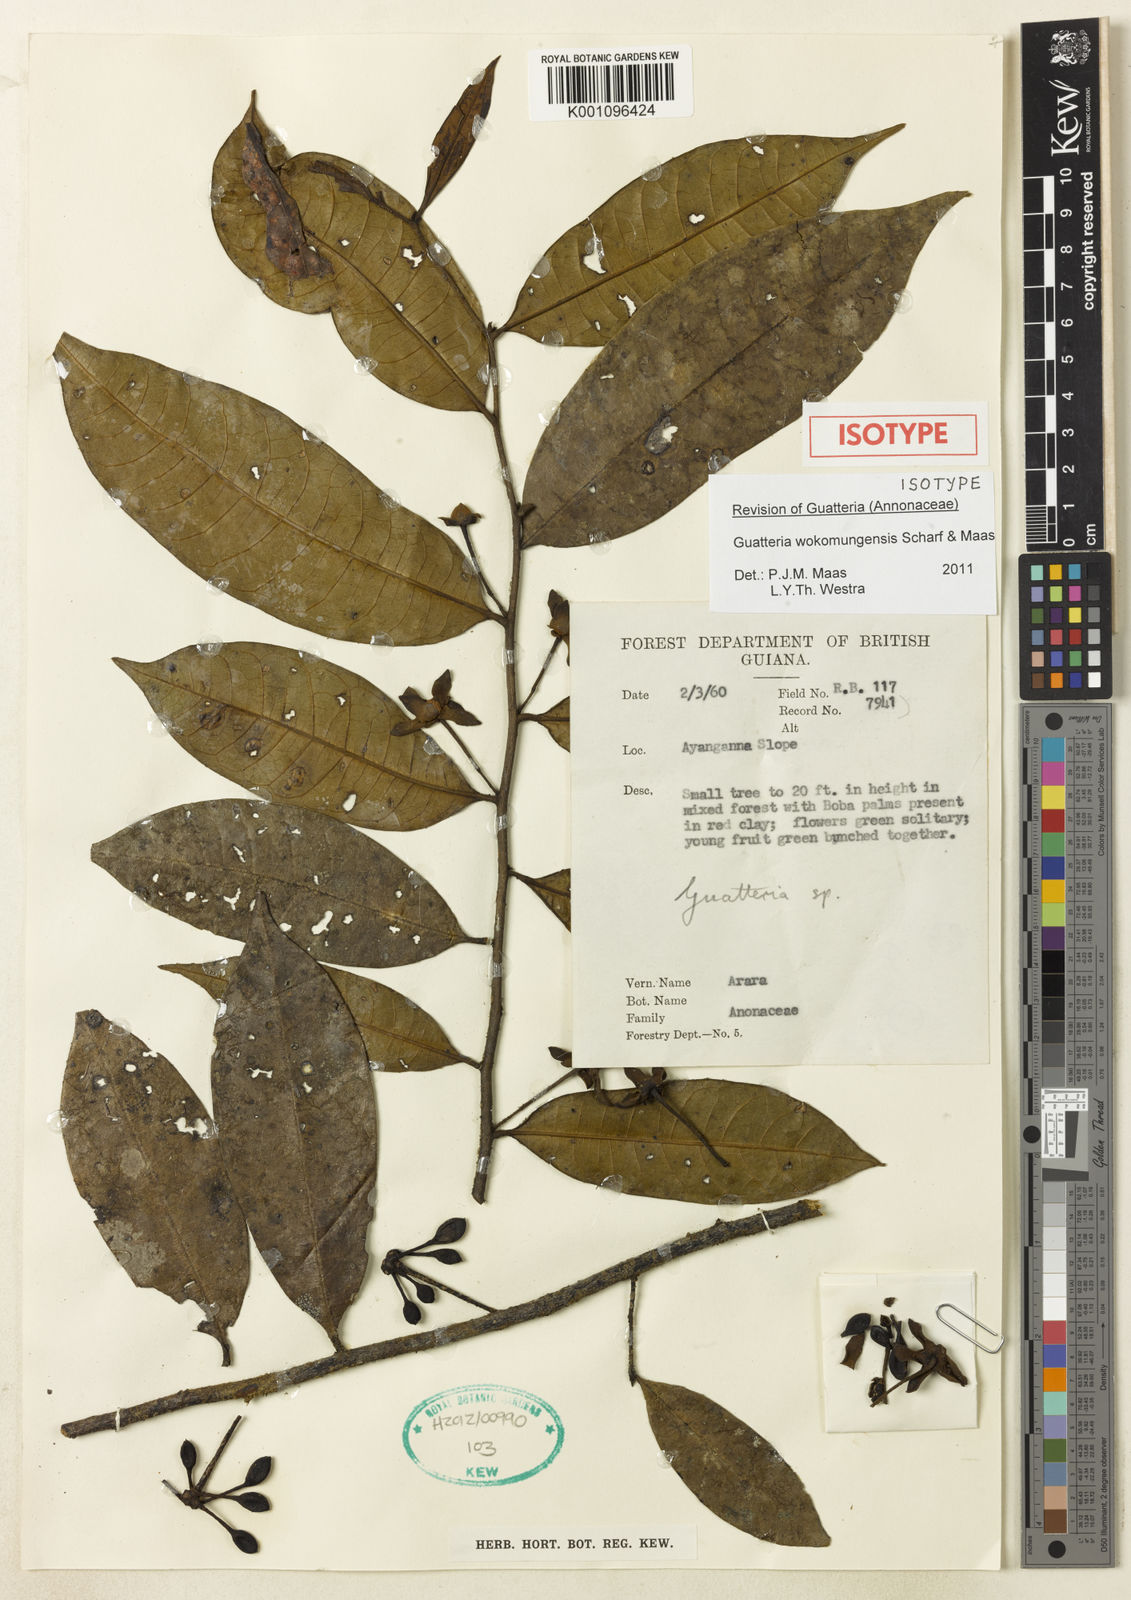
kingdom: Plantae
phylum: Tracheophyta
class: Magnoliopsida
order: Magnoliales
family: Annonaceae
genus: Guatteria
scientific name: Guatteria wokomungensis
